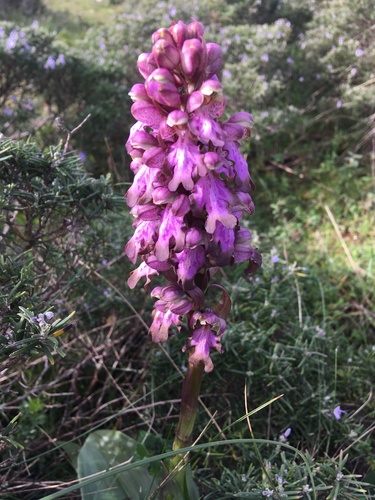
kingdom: Plantae
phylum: Tracheophyta
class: Liliopsida
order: Asparagales
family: Orchidaceae
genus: Himantoglossum
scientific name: Himantoglossum robertianum
